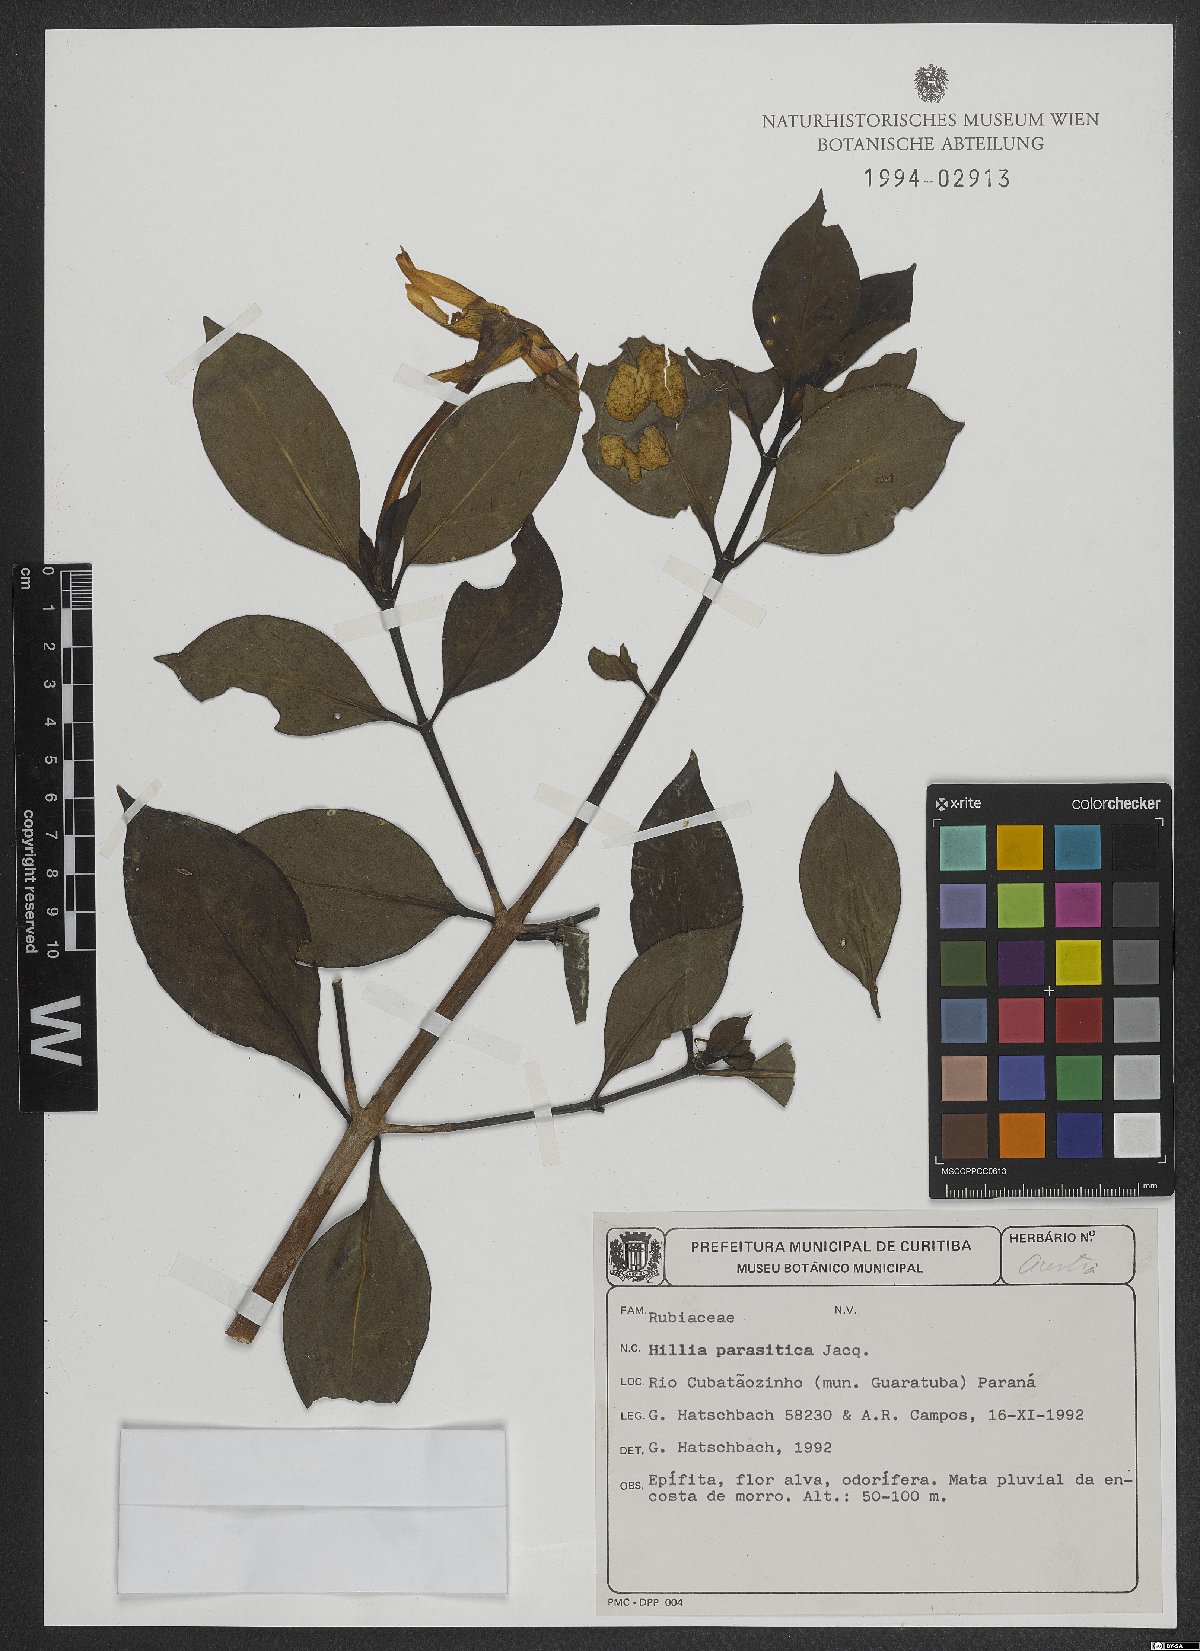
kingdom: Plantae
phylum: Tracheophyta
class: Magnoliopsida
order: Gentianales
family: Rubiaceae
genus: Hillia
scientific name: Hillia parasitica
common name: Morning star
